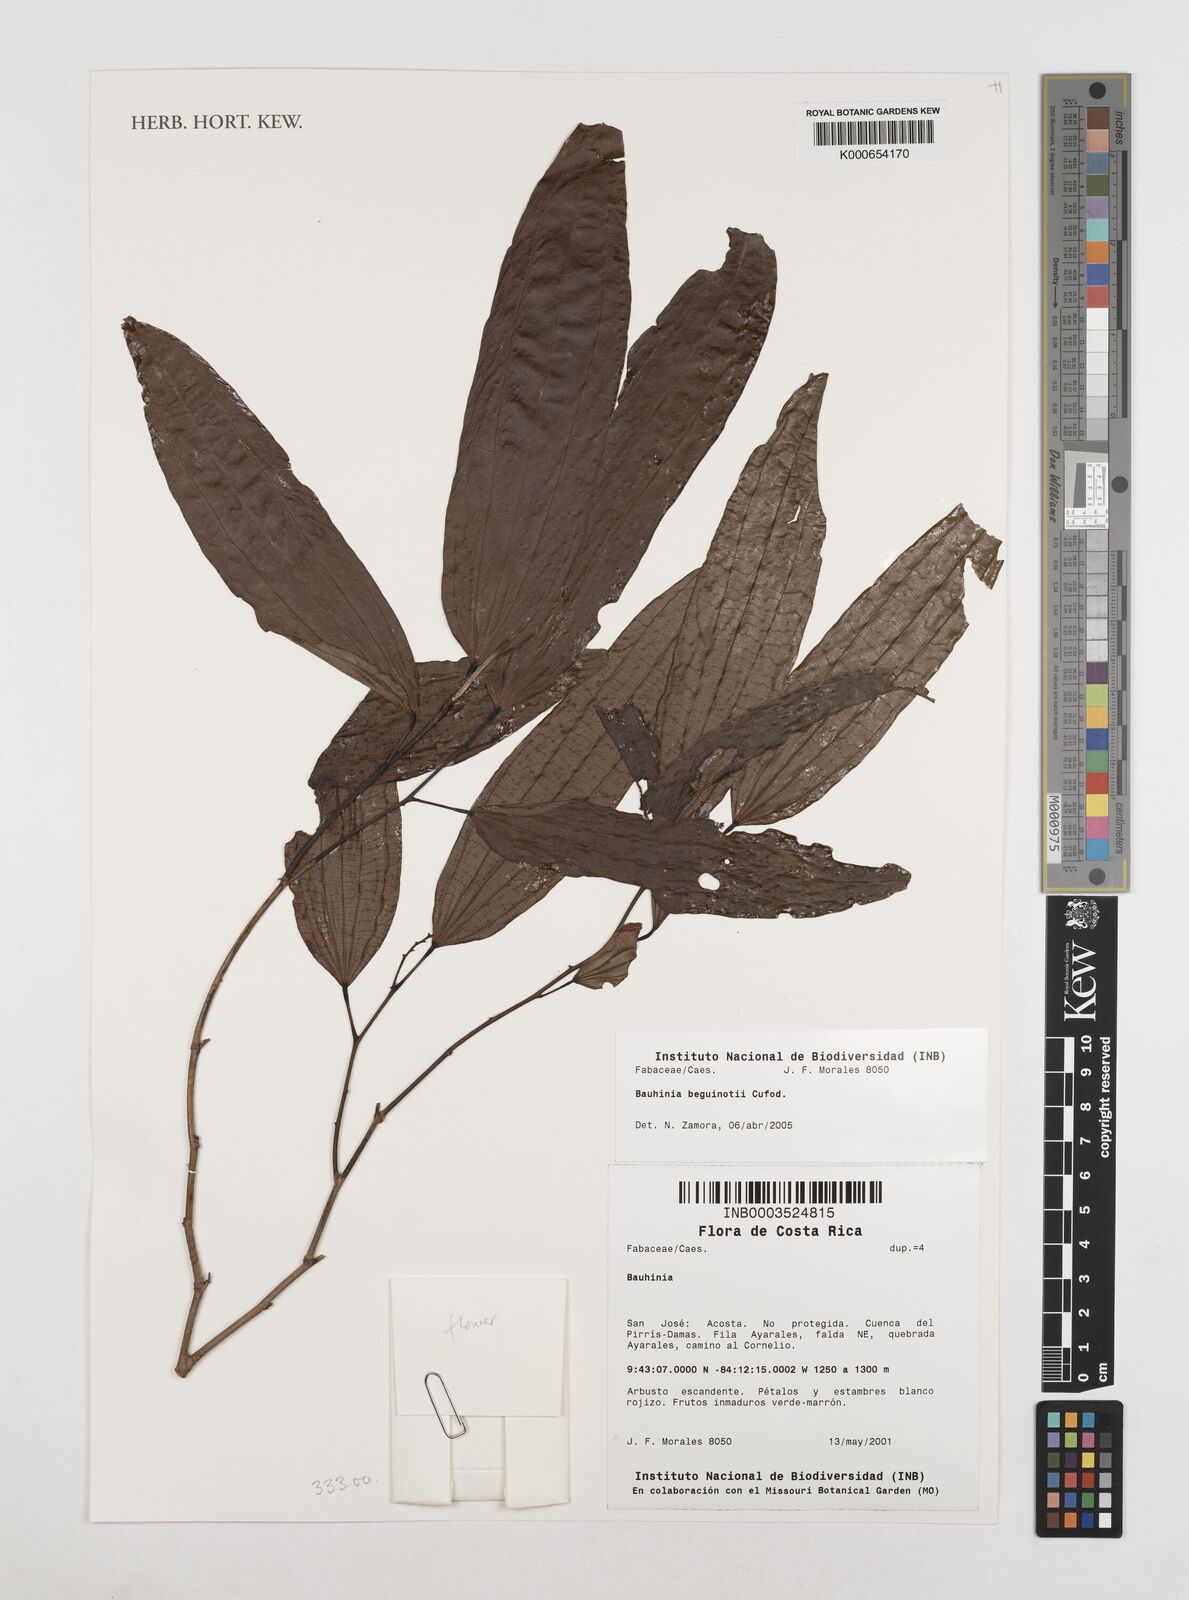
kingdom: Plantae
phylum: Tracheophyta
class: Magnoliopsida
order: Fabales
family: Fabaceae
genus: Bauhinia
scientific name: Bauhinia beguinotii
